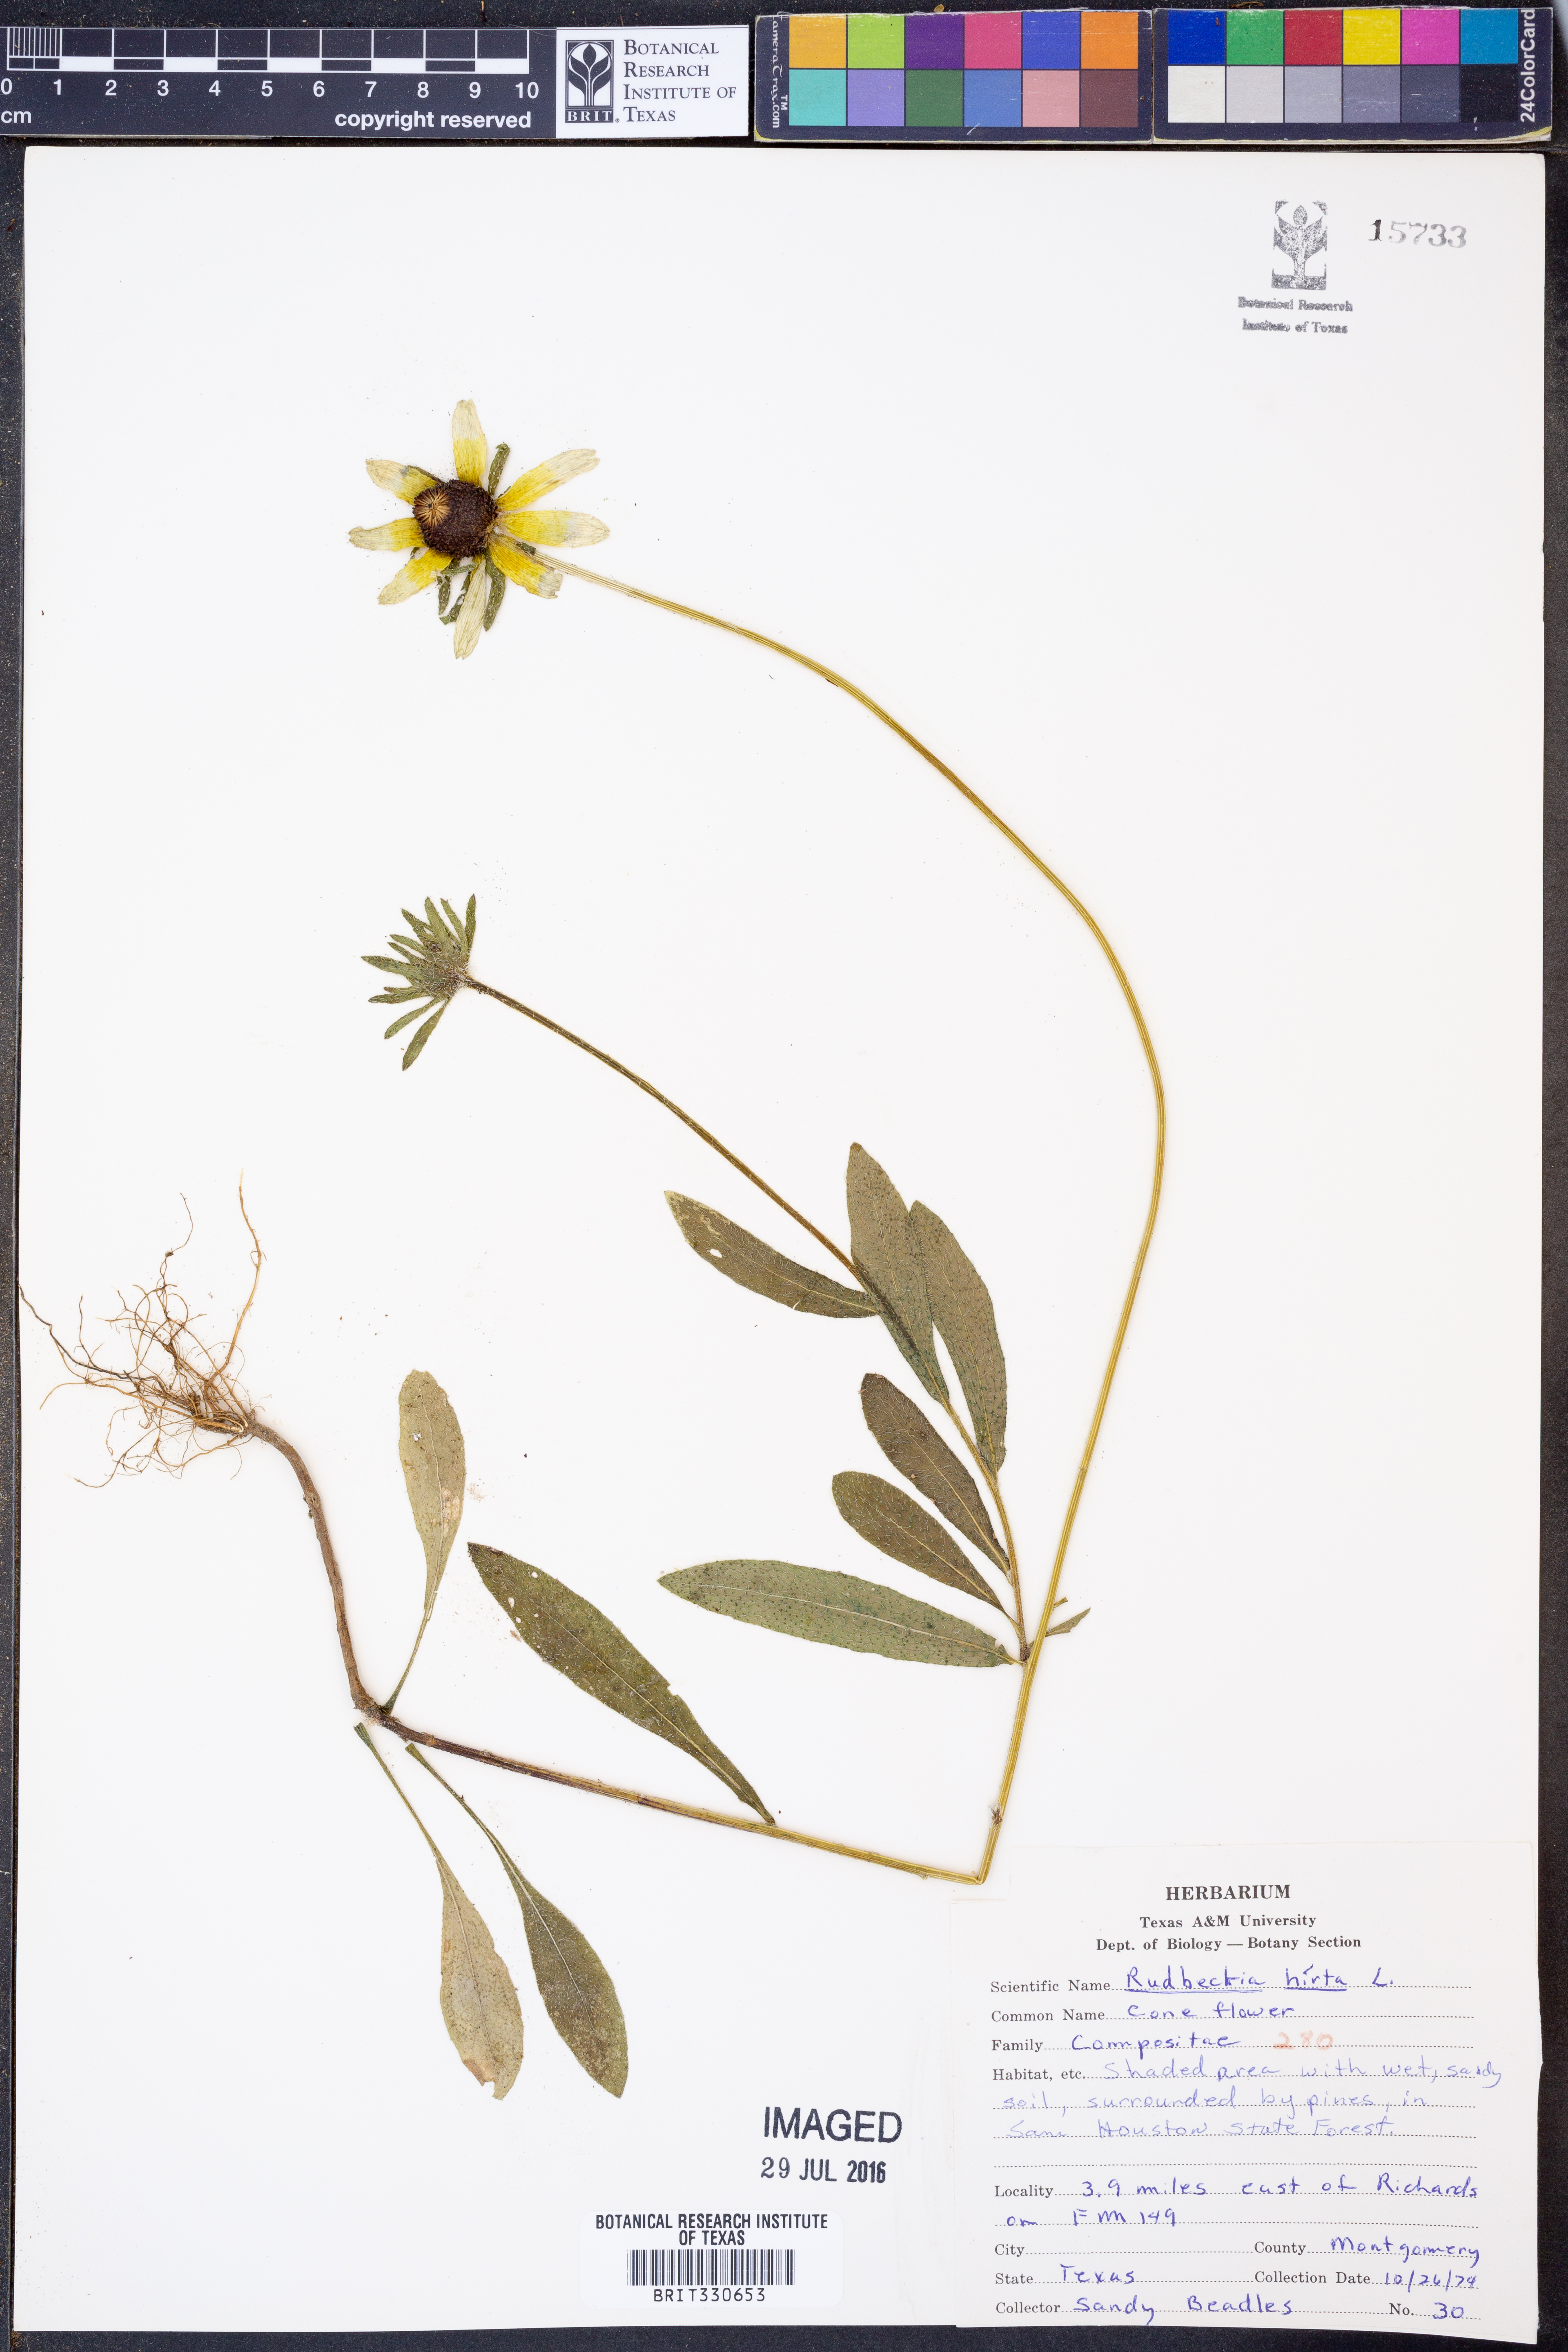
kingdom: Plantae
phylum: Tracheophyta
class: Magnoliopsida
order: Asterales
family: Asteraceae
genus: Rudbeckia
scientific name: Rudbeckia hirta
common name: Black-eyed-susan
